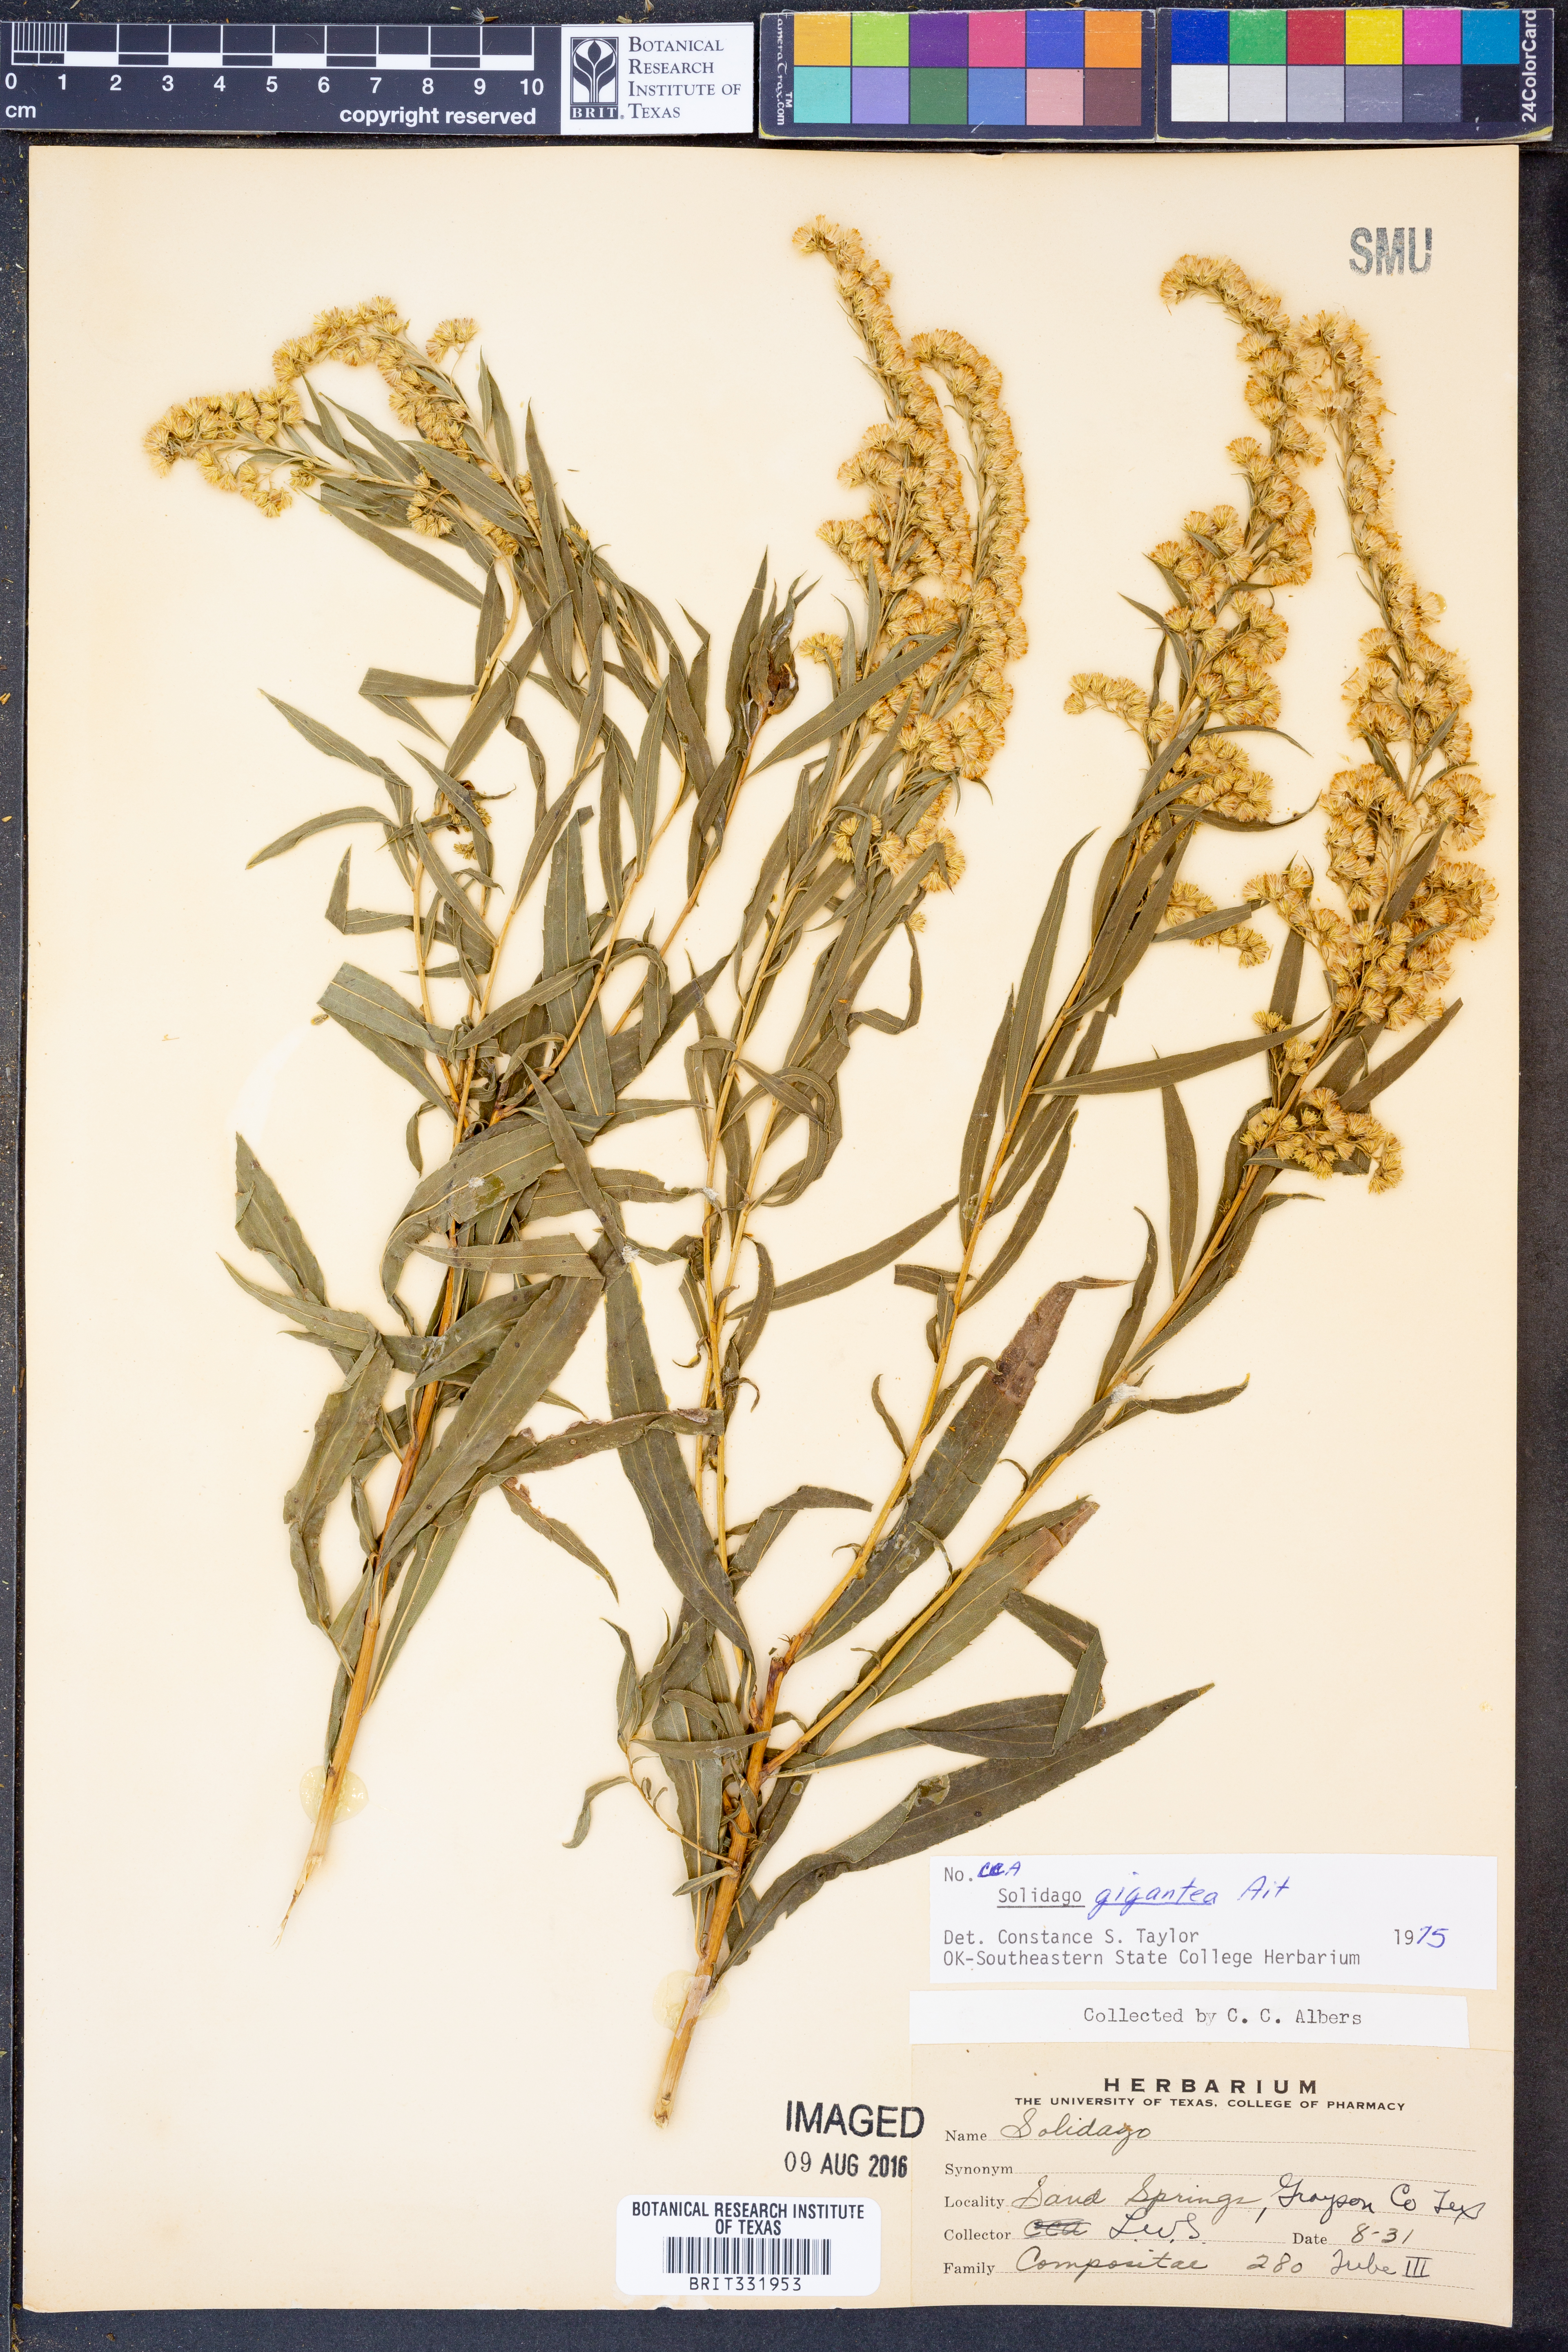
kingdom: Plantae
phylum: Tracheophyta
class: Magnoliopsida
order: Asterales
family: Asteraceae
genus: Solidago
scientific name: Solidago gigantea
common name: Giant goldenrod
